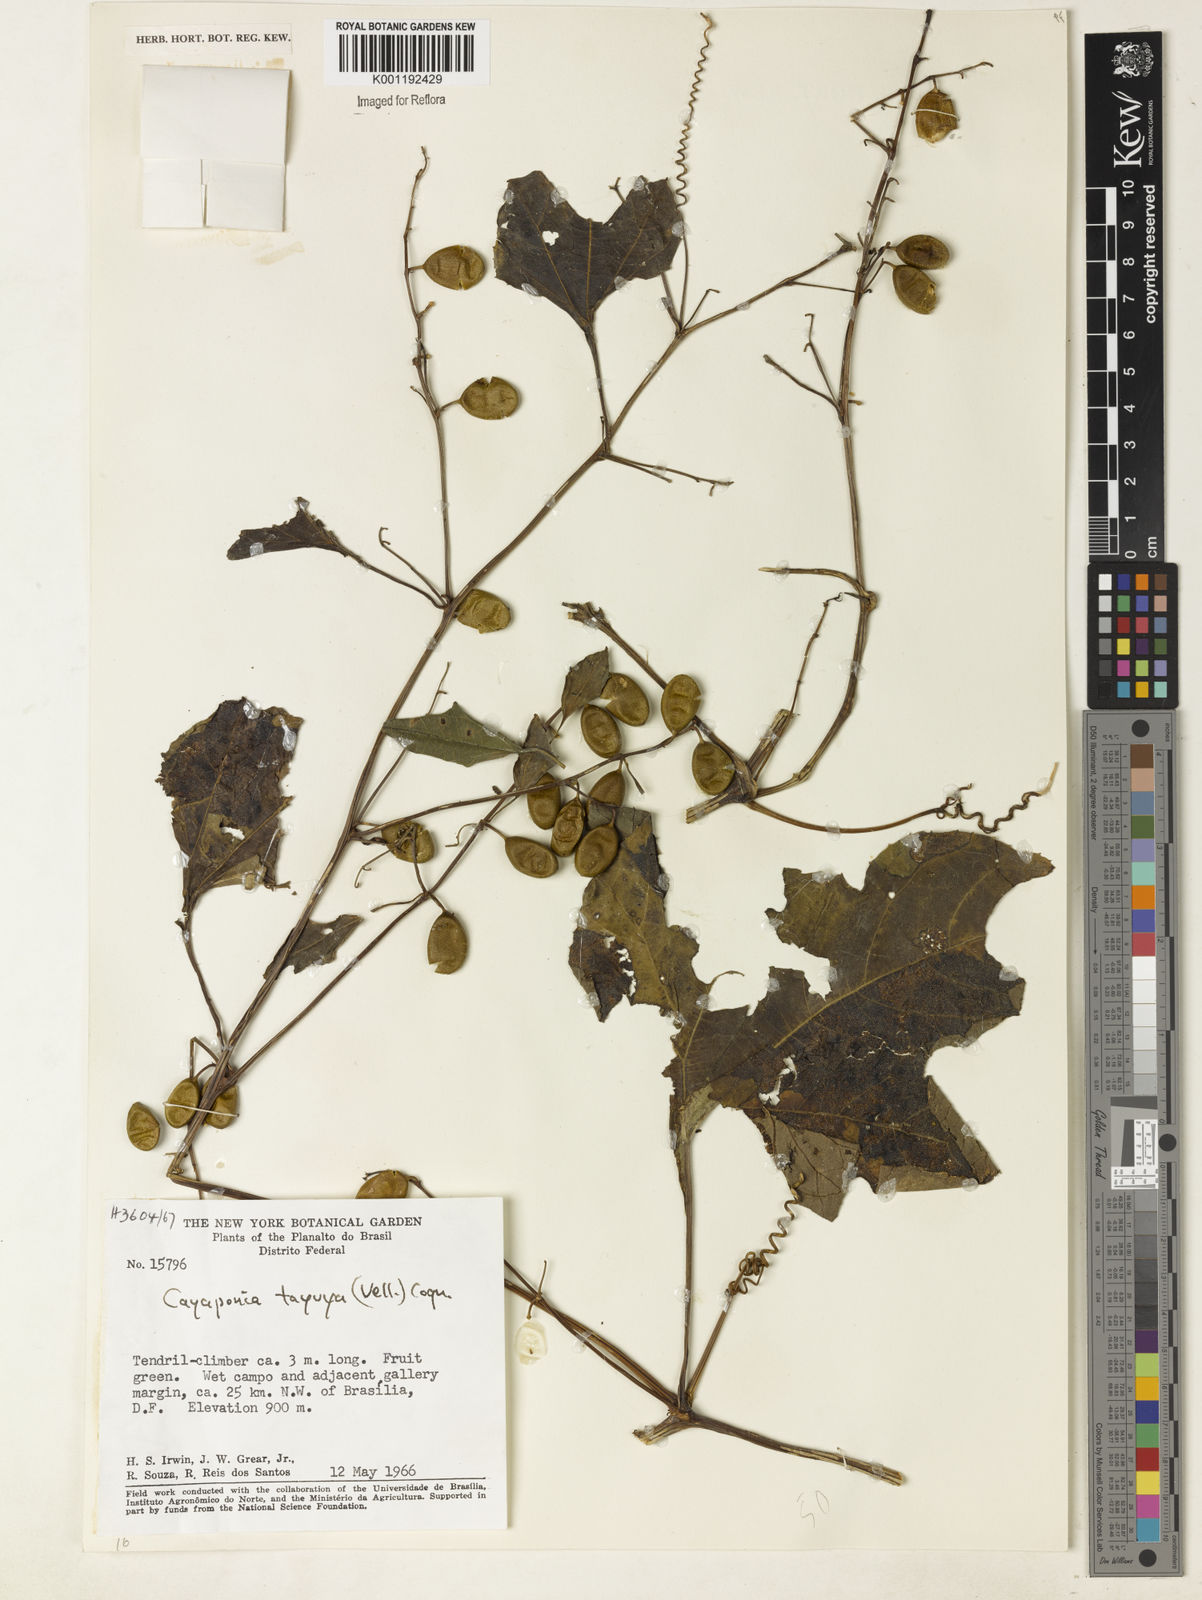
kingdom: Plantae
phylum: Tracheophyta
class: Magnoliopsida
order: Cucurbitales
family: Cucurbitaceae
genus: Cayaponia
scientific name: Cayaponia tayuya
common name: Tayuya
